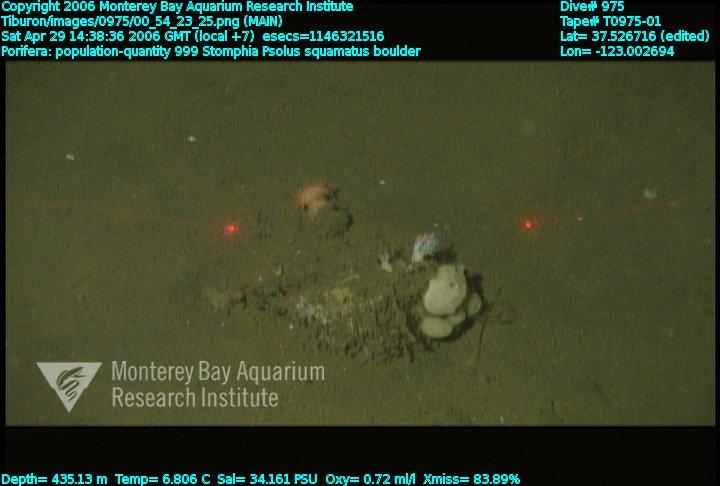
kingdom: Animalia
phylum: Porifera
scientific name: Porifera
